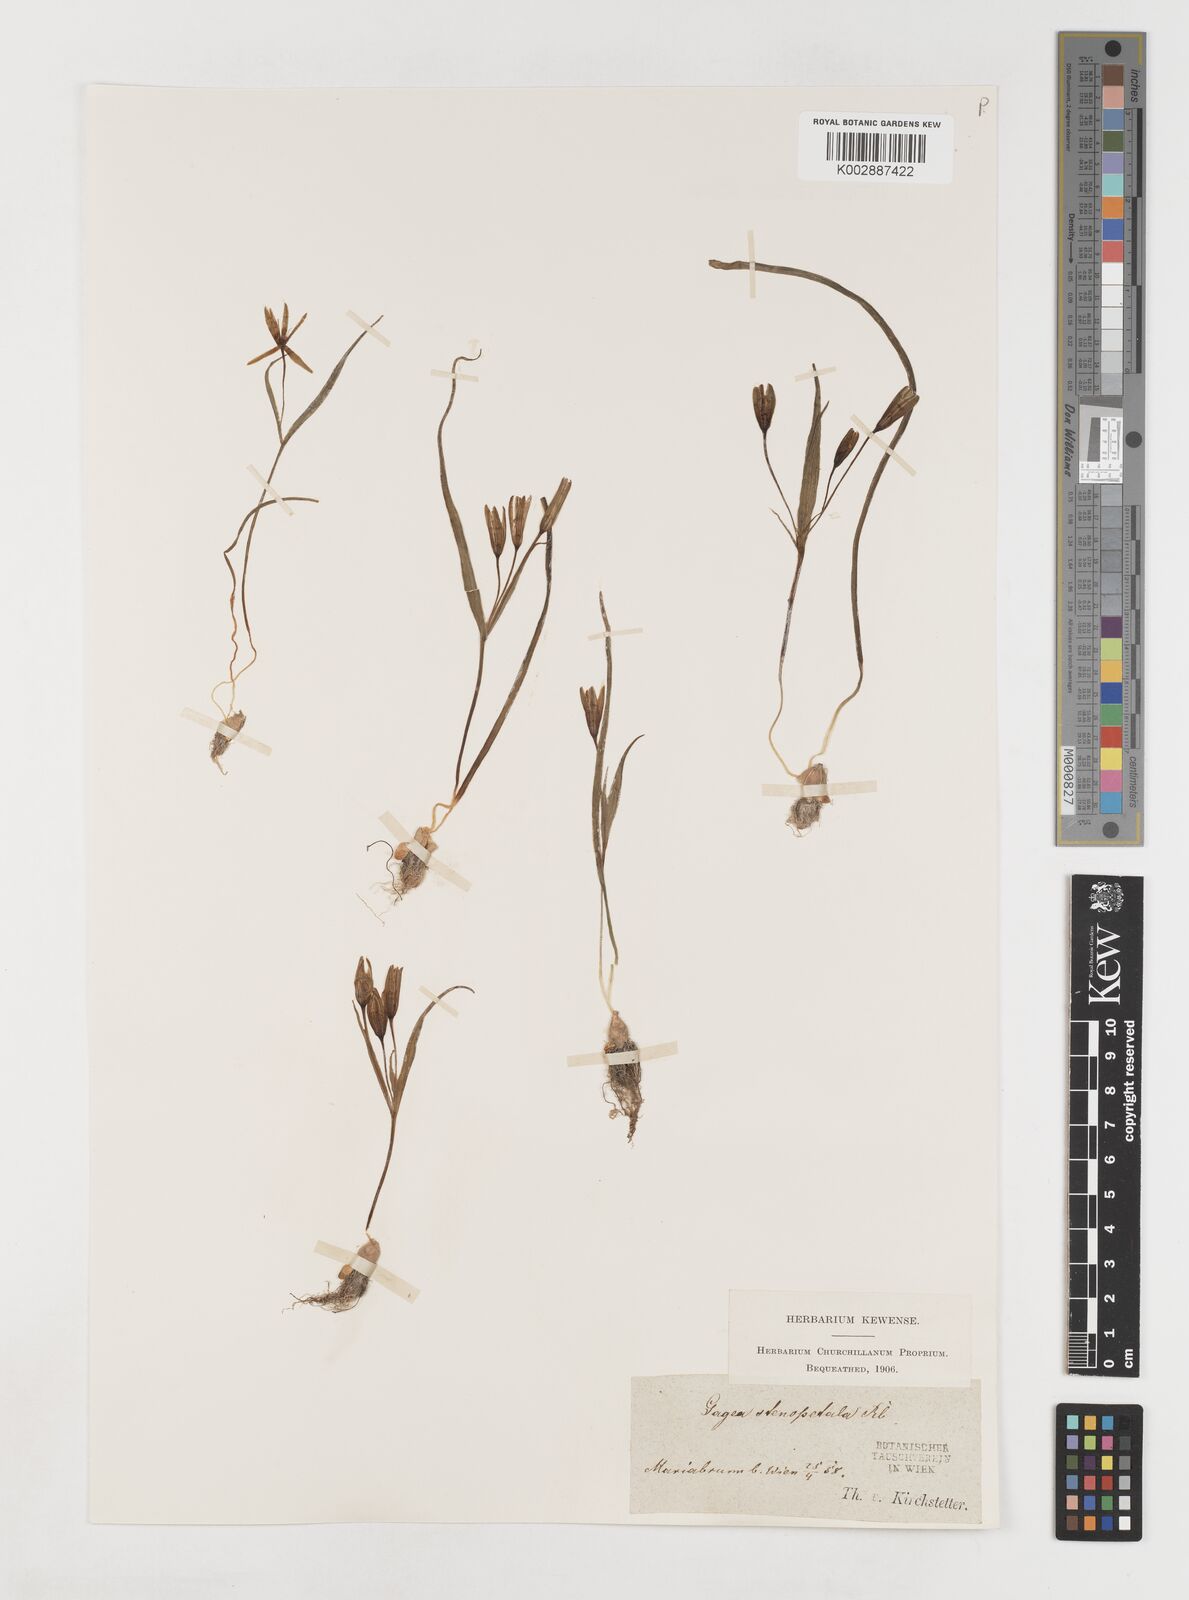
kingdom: Plantae
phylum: Tracheophyta
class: Liliopsida
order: Liliales
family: Liliaceae
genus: Gagea
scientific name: Gagea pratensis
